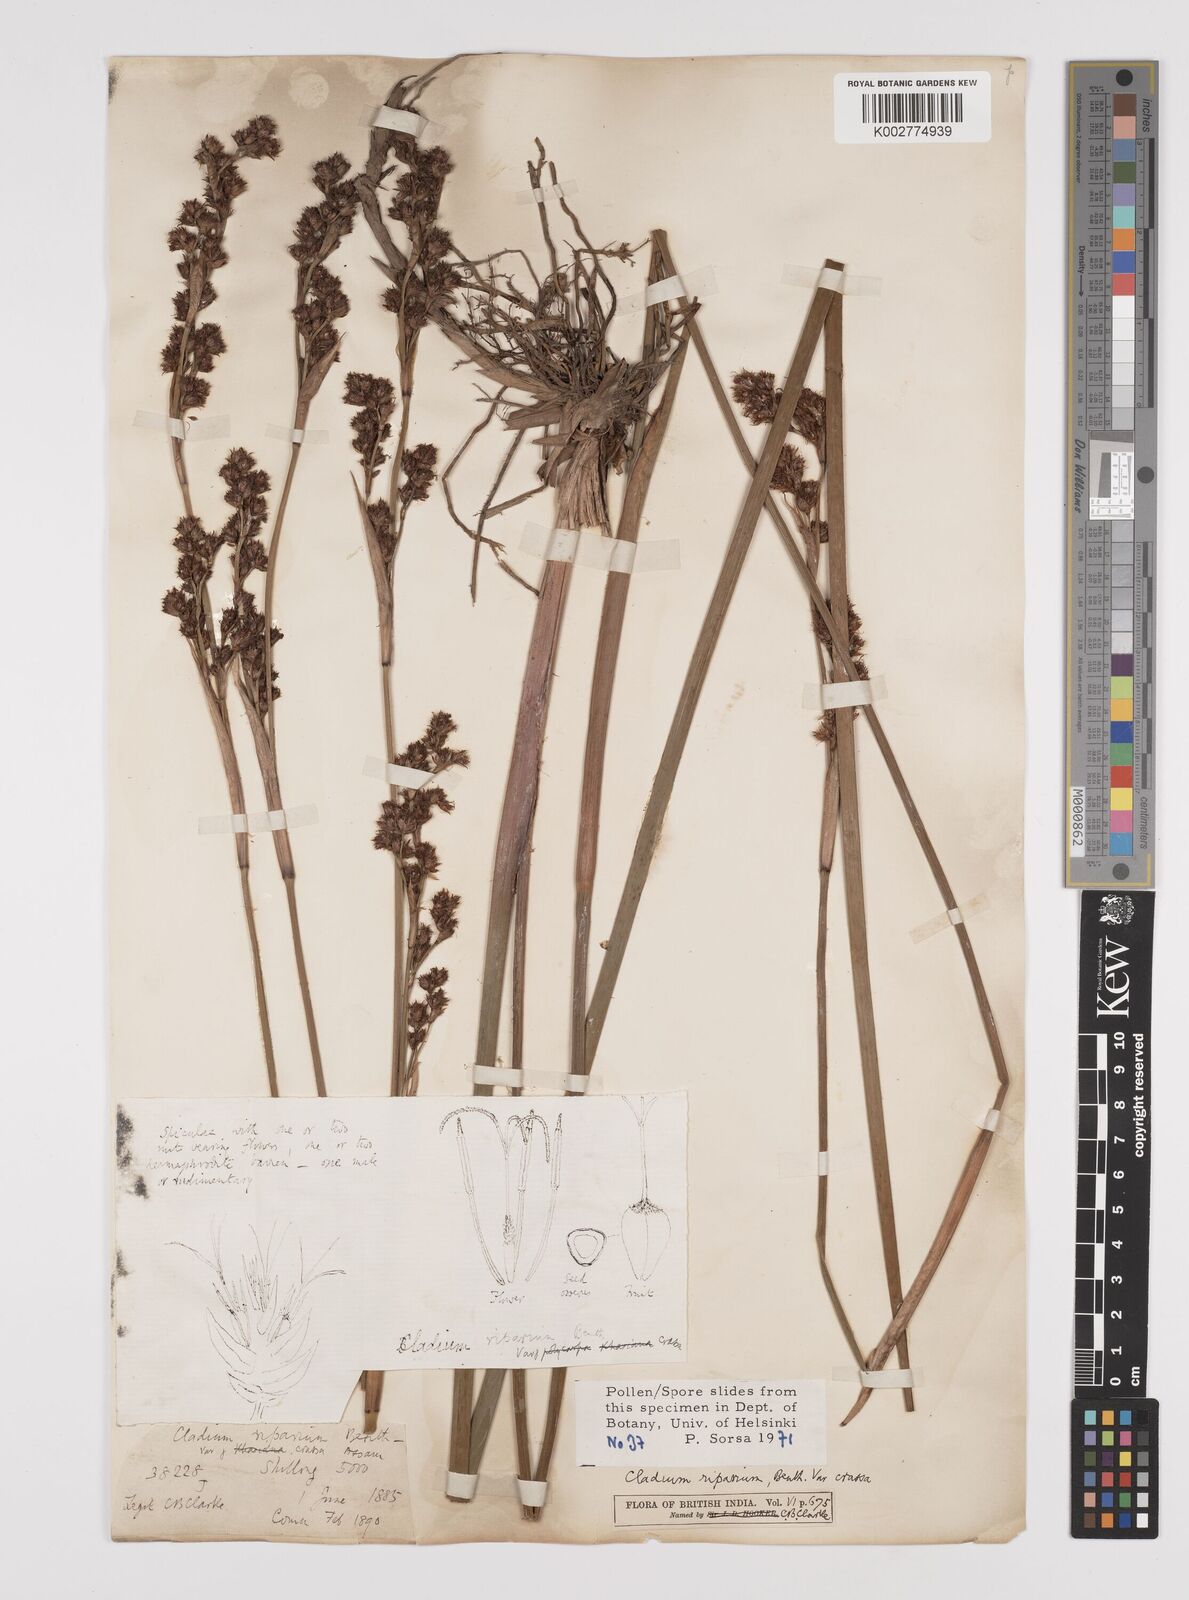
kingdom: Plantae
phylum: Tracheophyta
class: Liliopsida
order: Poales
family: Cyperaceae
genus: Machaerina
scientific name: Machaerina rubiginosa
